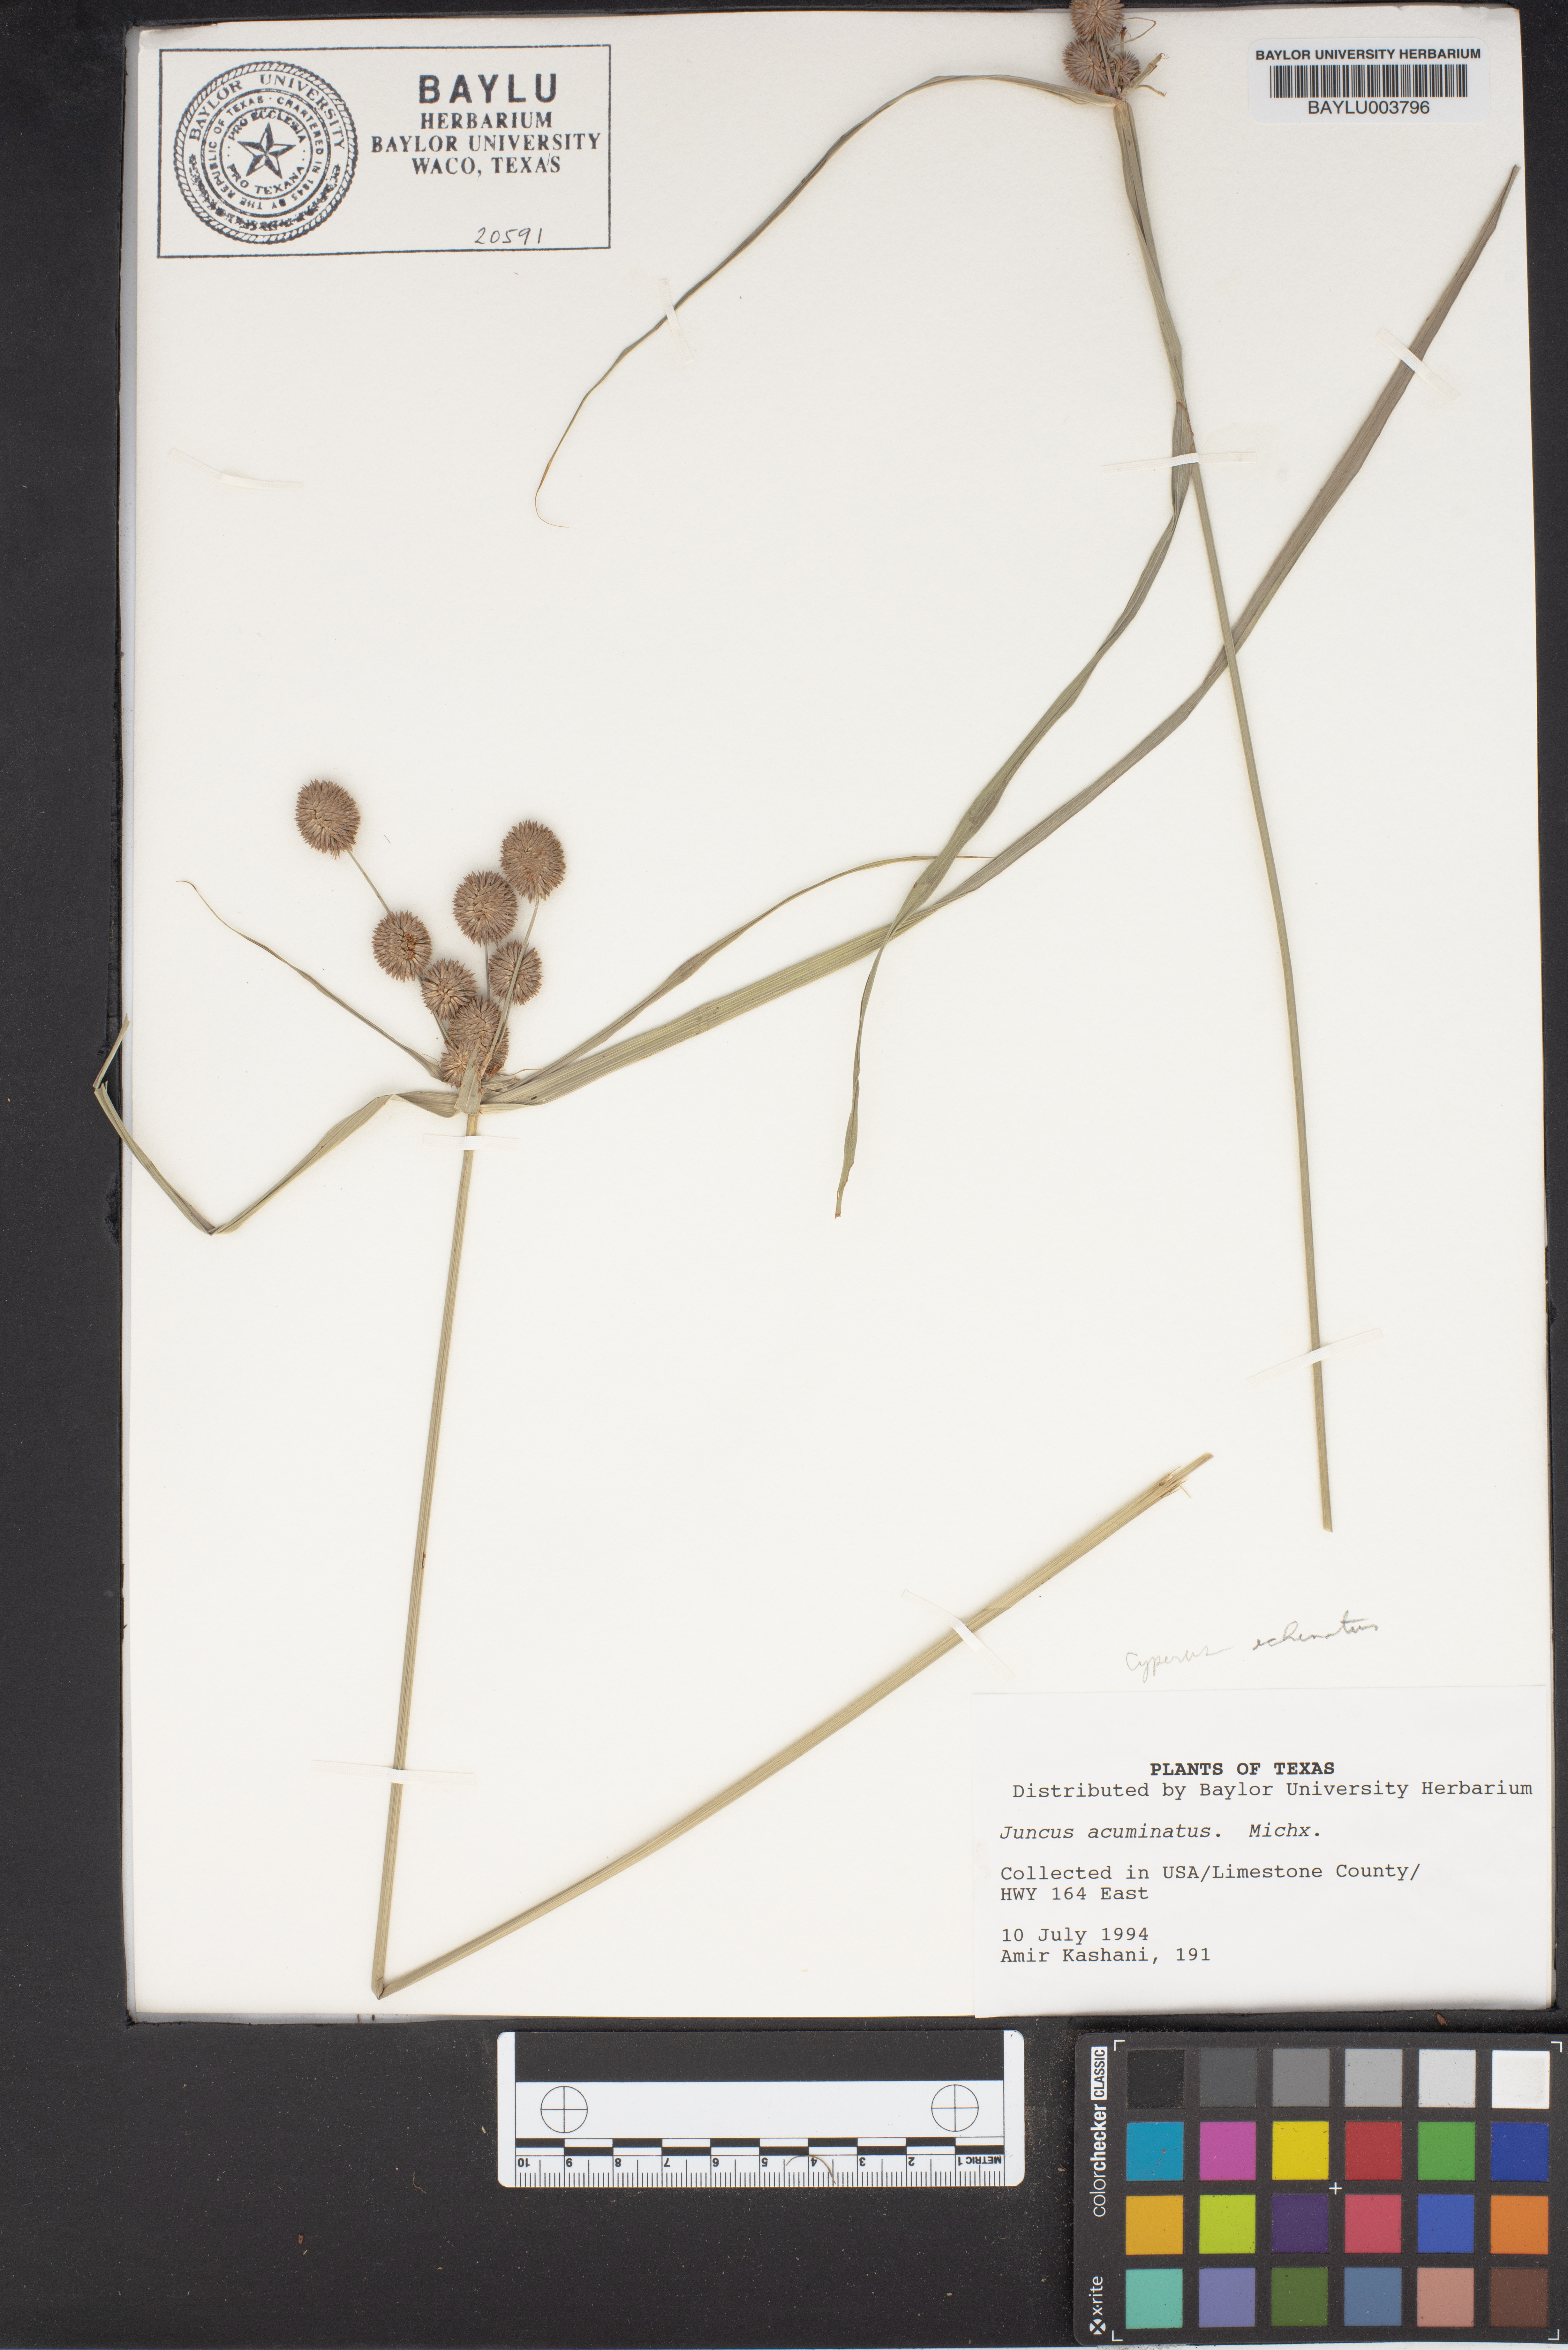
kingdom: Plantae
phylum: Tracheophyta
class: Liliopsida
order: Poales
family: Juncaceae
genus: Juncus
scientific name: Juncus acuminatus
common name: Knotty-leaved rush
